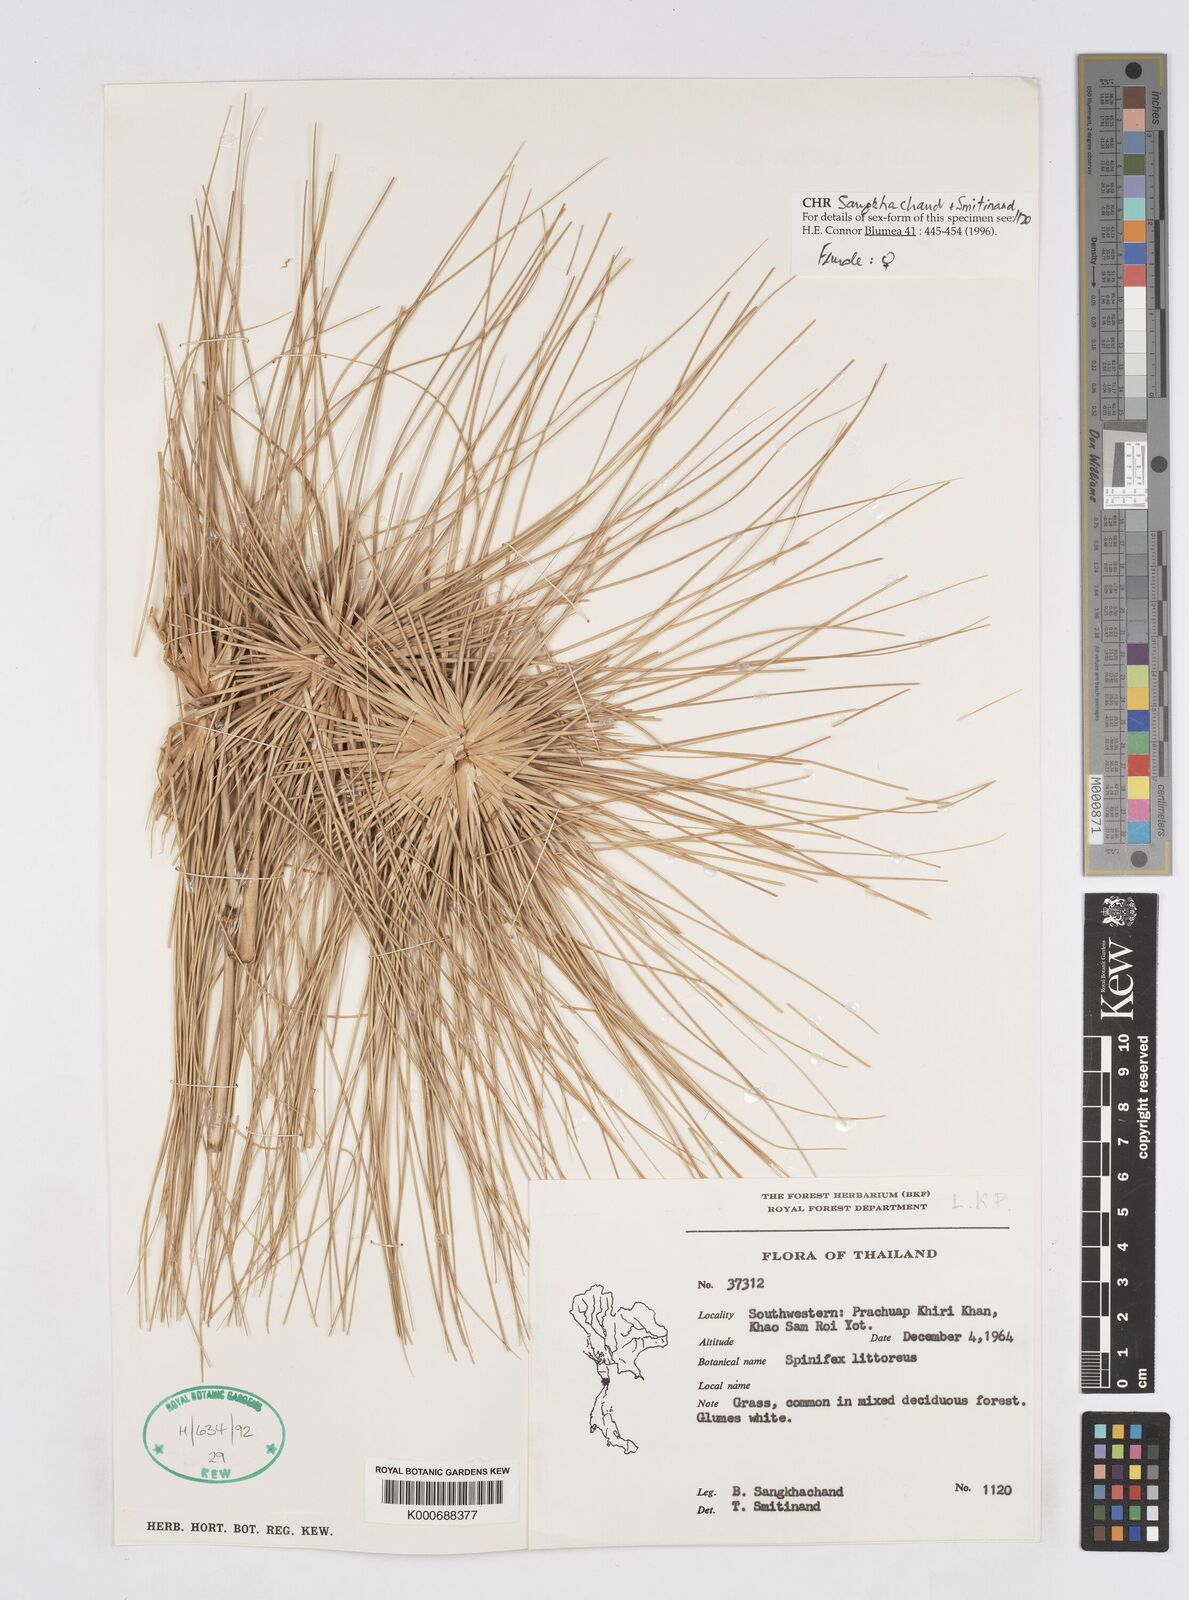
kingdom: Plantae
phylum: Tracheophyta
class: Liliopsida
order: Poales
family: Poaceae
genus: Spinifex
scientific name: Spinifex littoreus
